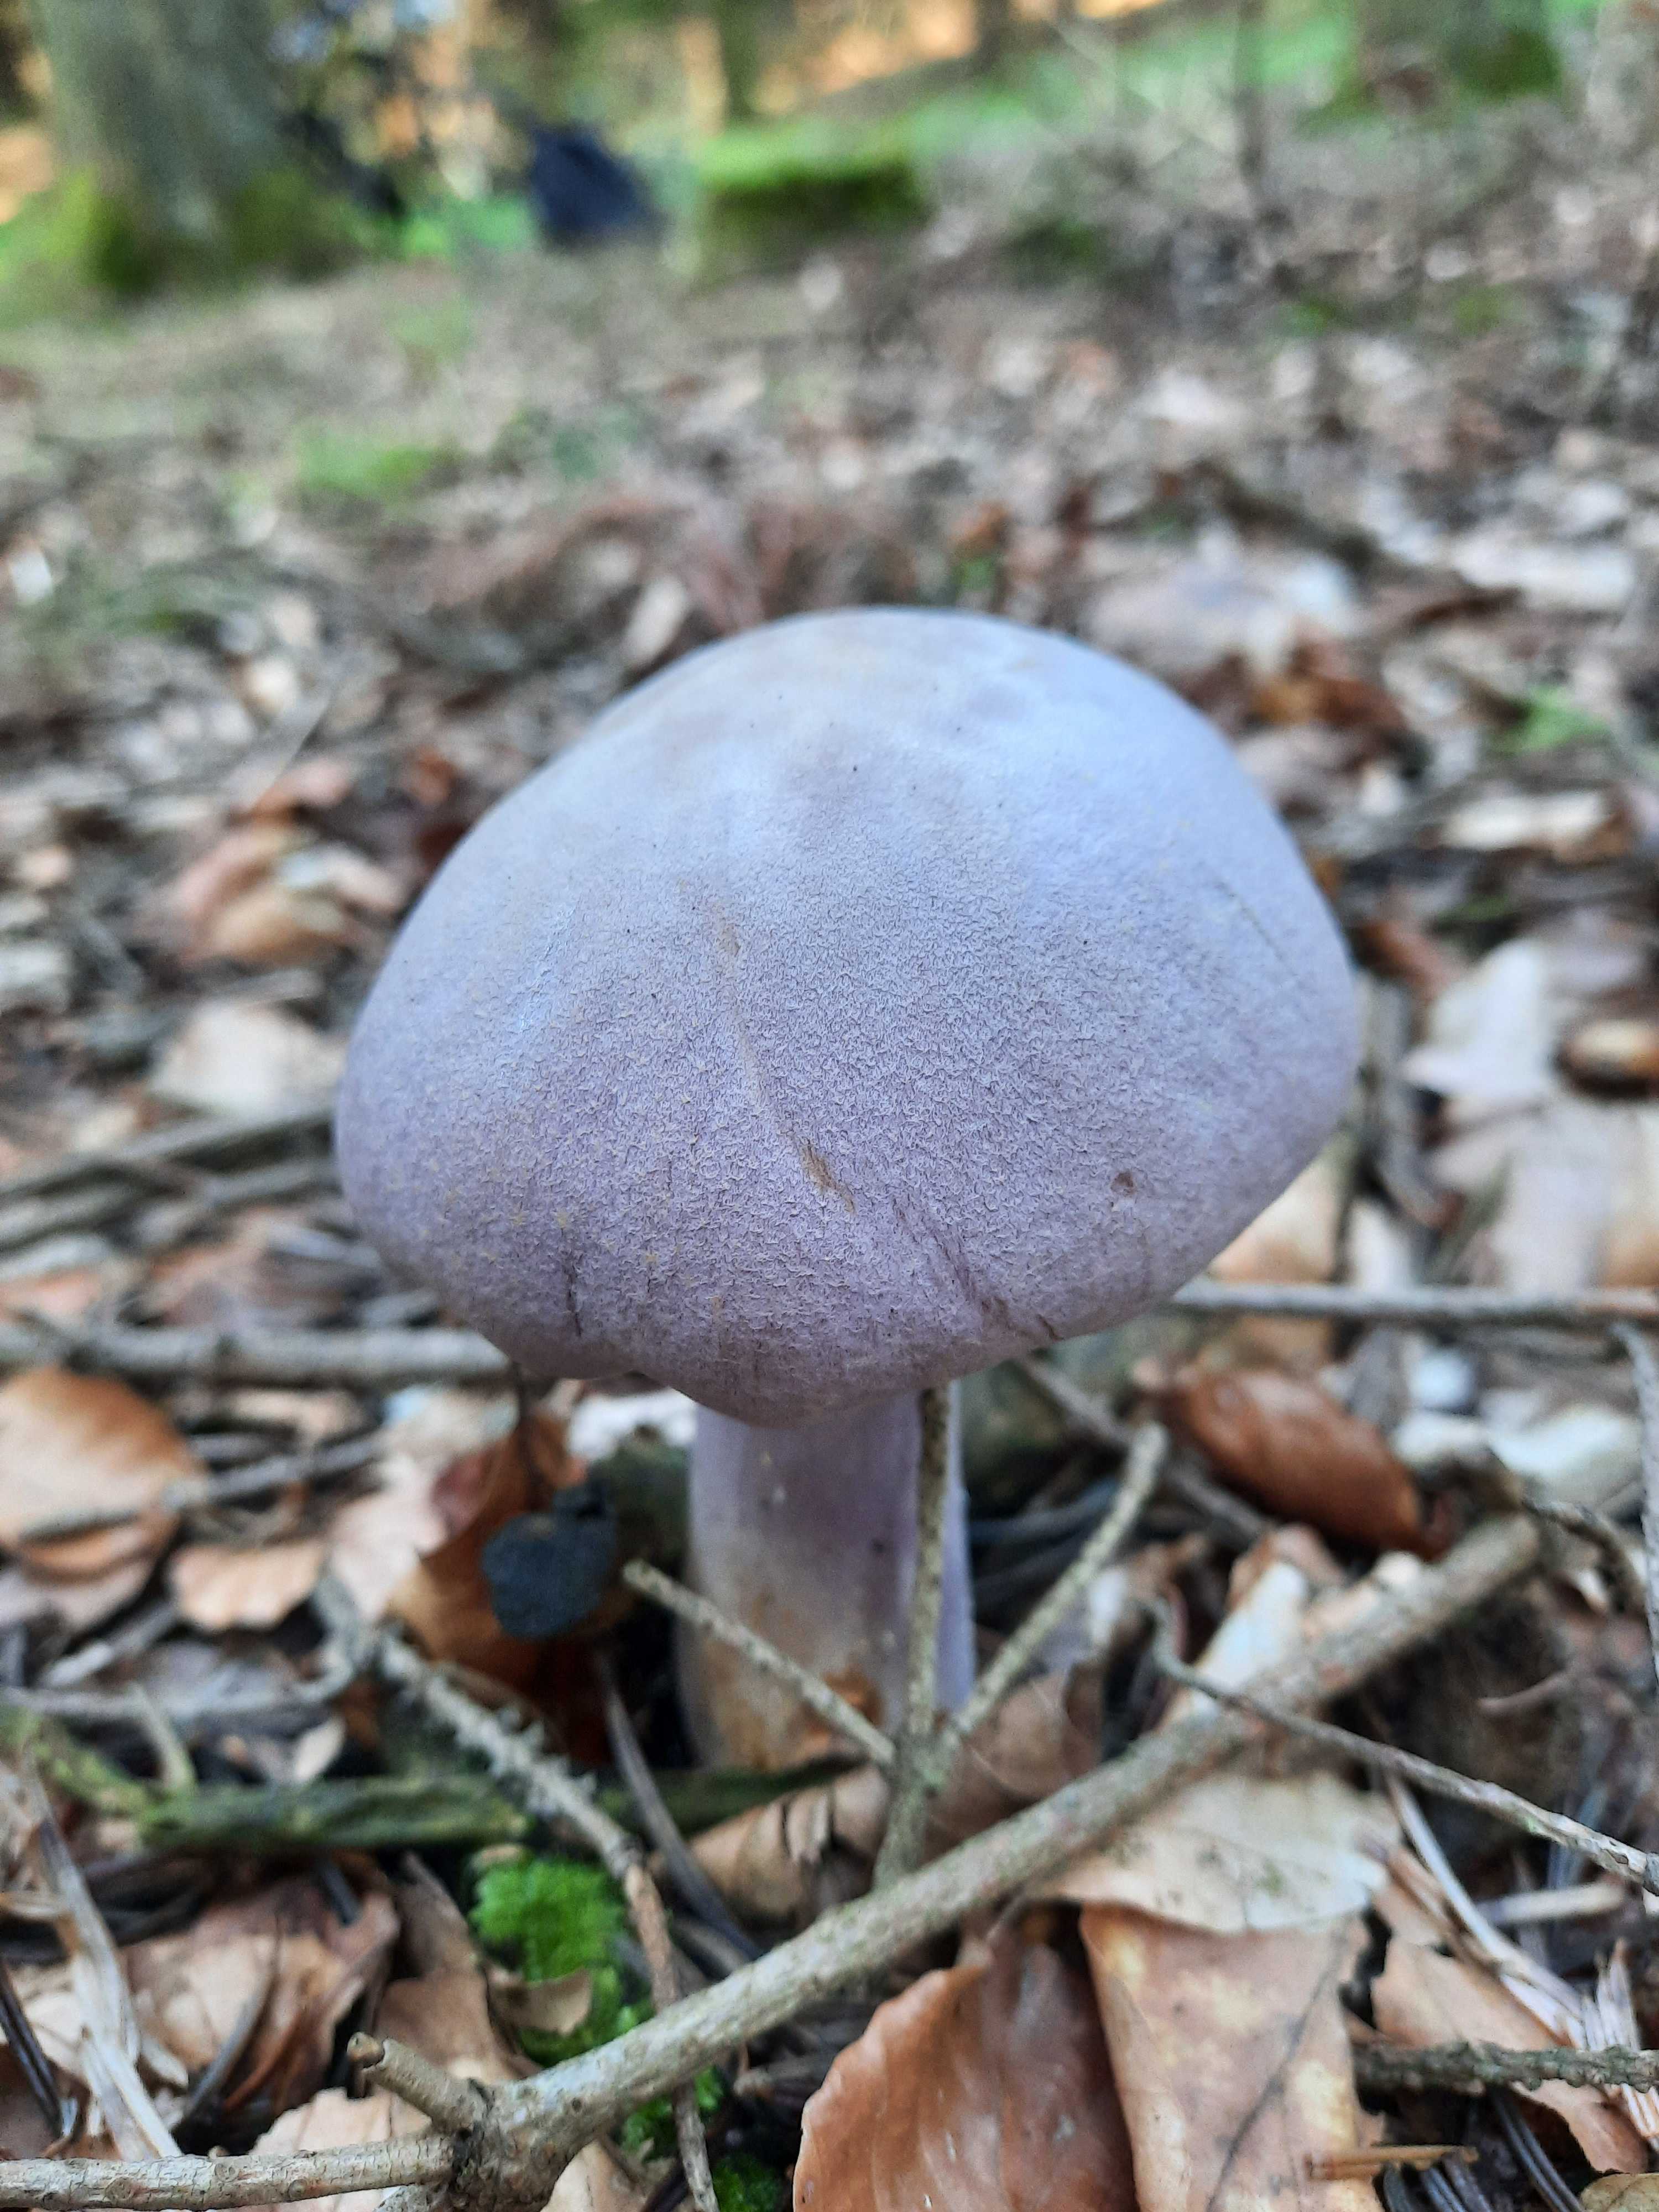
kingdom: Fungi
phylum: Basidiomycota
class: Agaricomycetes
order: Agaricales
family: Cortinariaceae
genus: Cortinarius
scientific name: Cortinarius camphoratus
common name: stinkende slørhat
